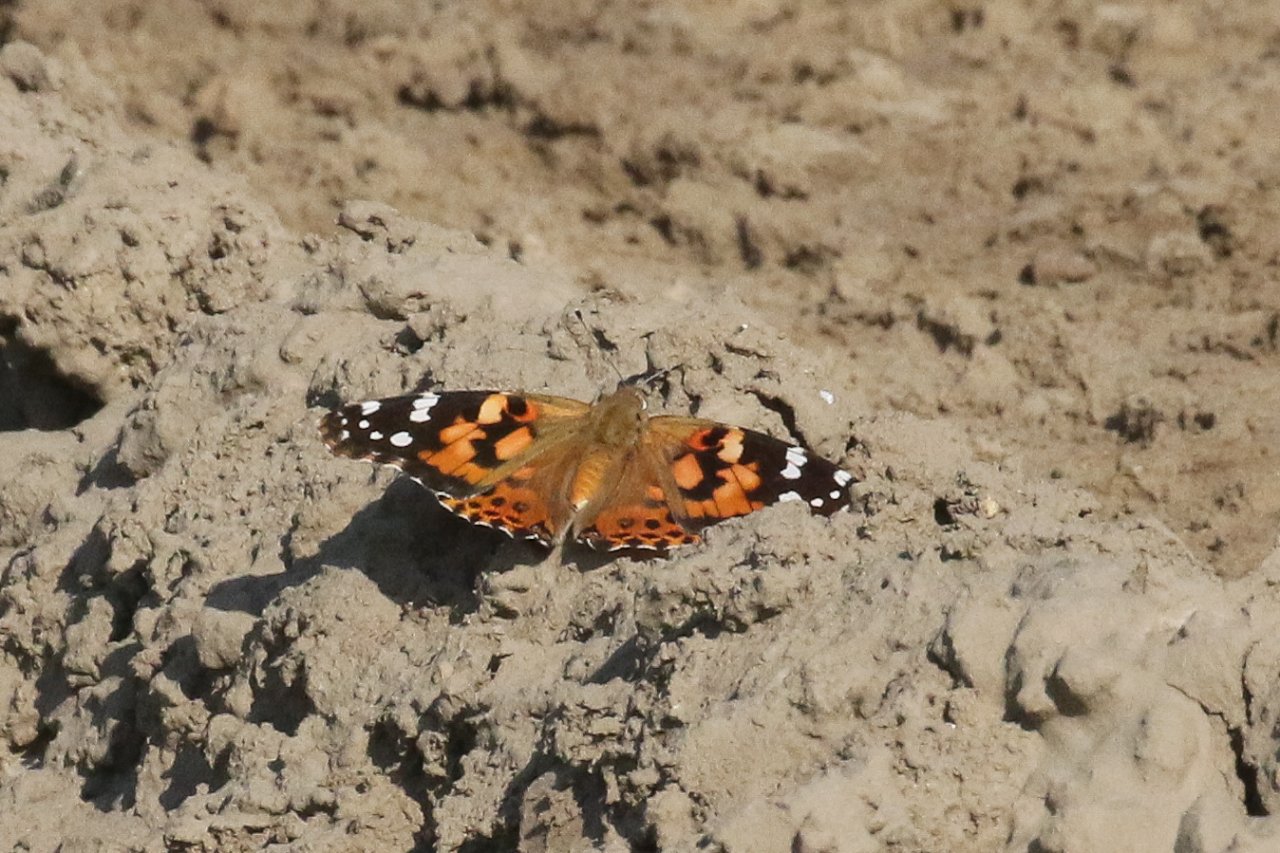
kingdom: Animalia
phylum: Arthropoda
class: Insecta
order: Lepidoptera
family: Nymphalidae
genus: Vanessa
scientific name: Vanessa cardui
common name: Painted Lady
